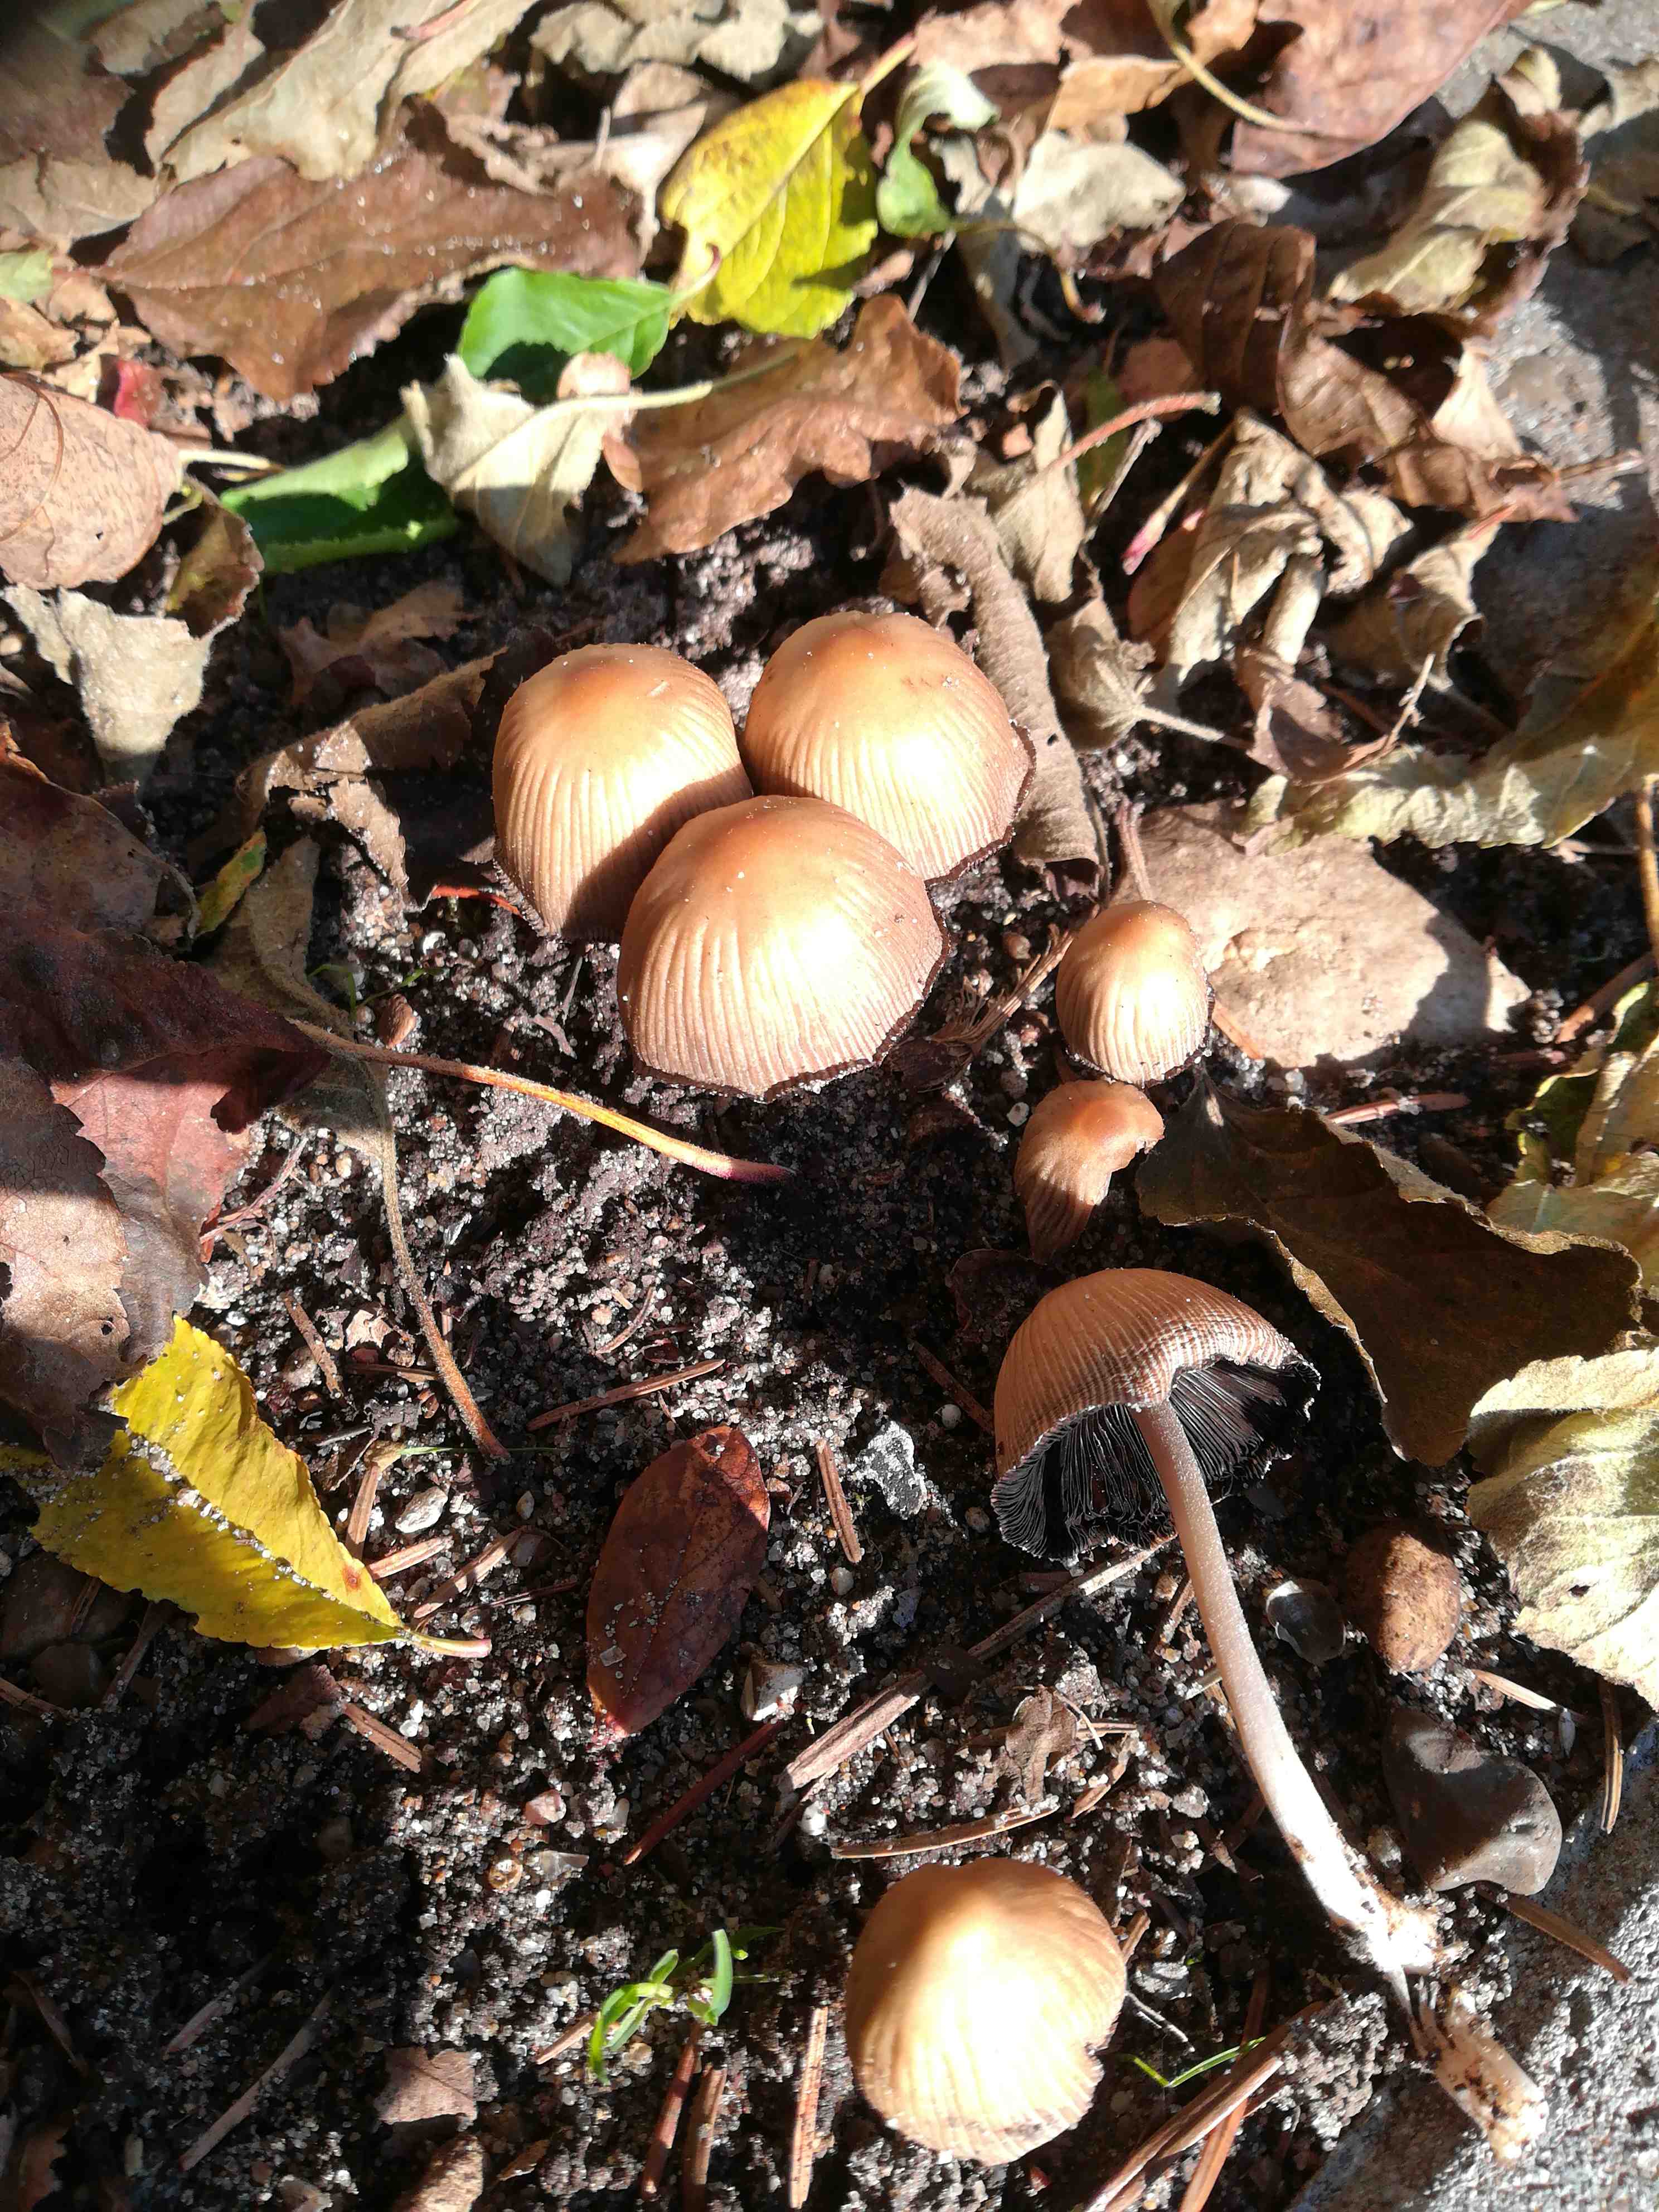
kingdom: Fungi
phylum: Basidiomycota
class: Agaricomycetes
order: Agaricales
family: Psathyrellaceae
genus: Coprinellus
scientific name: Coprinellus micaceus
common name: glimmer-blækhat
